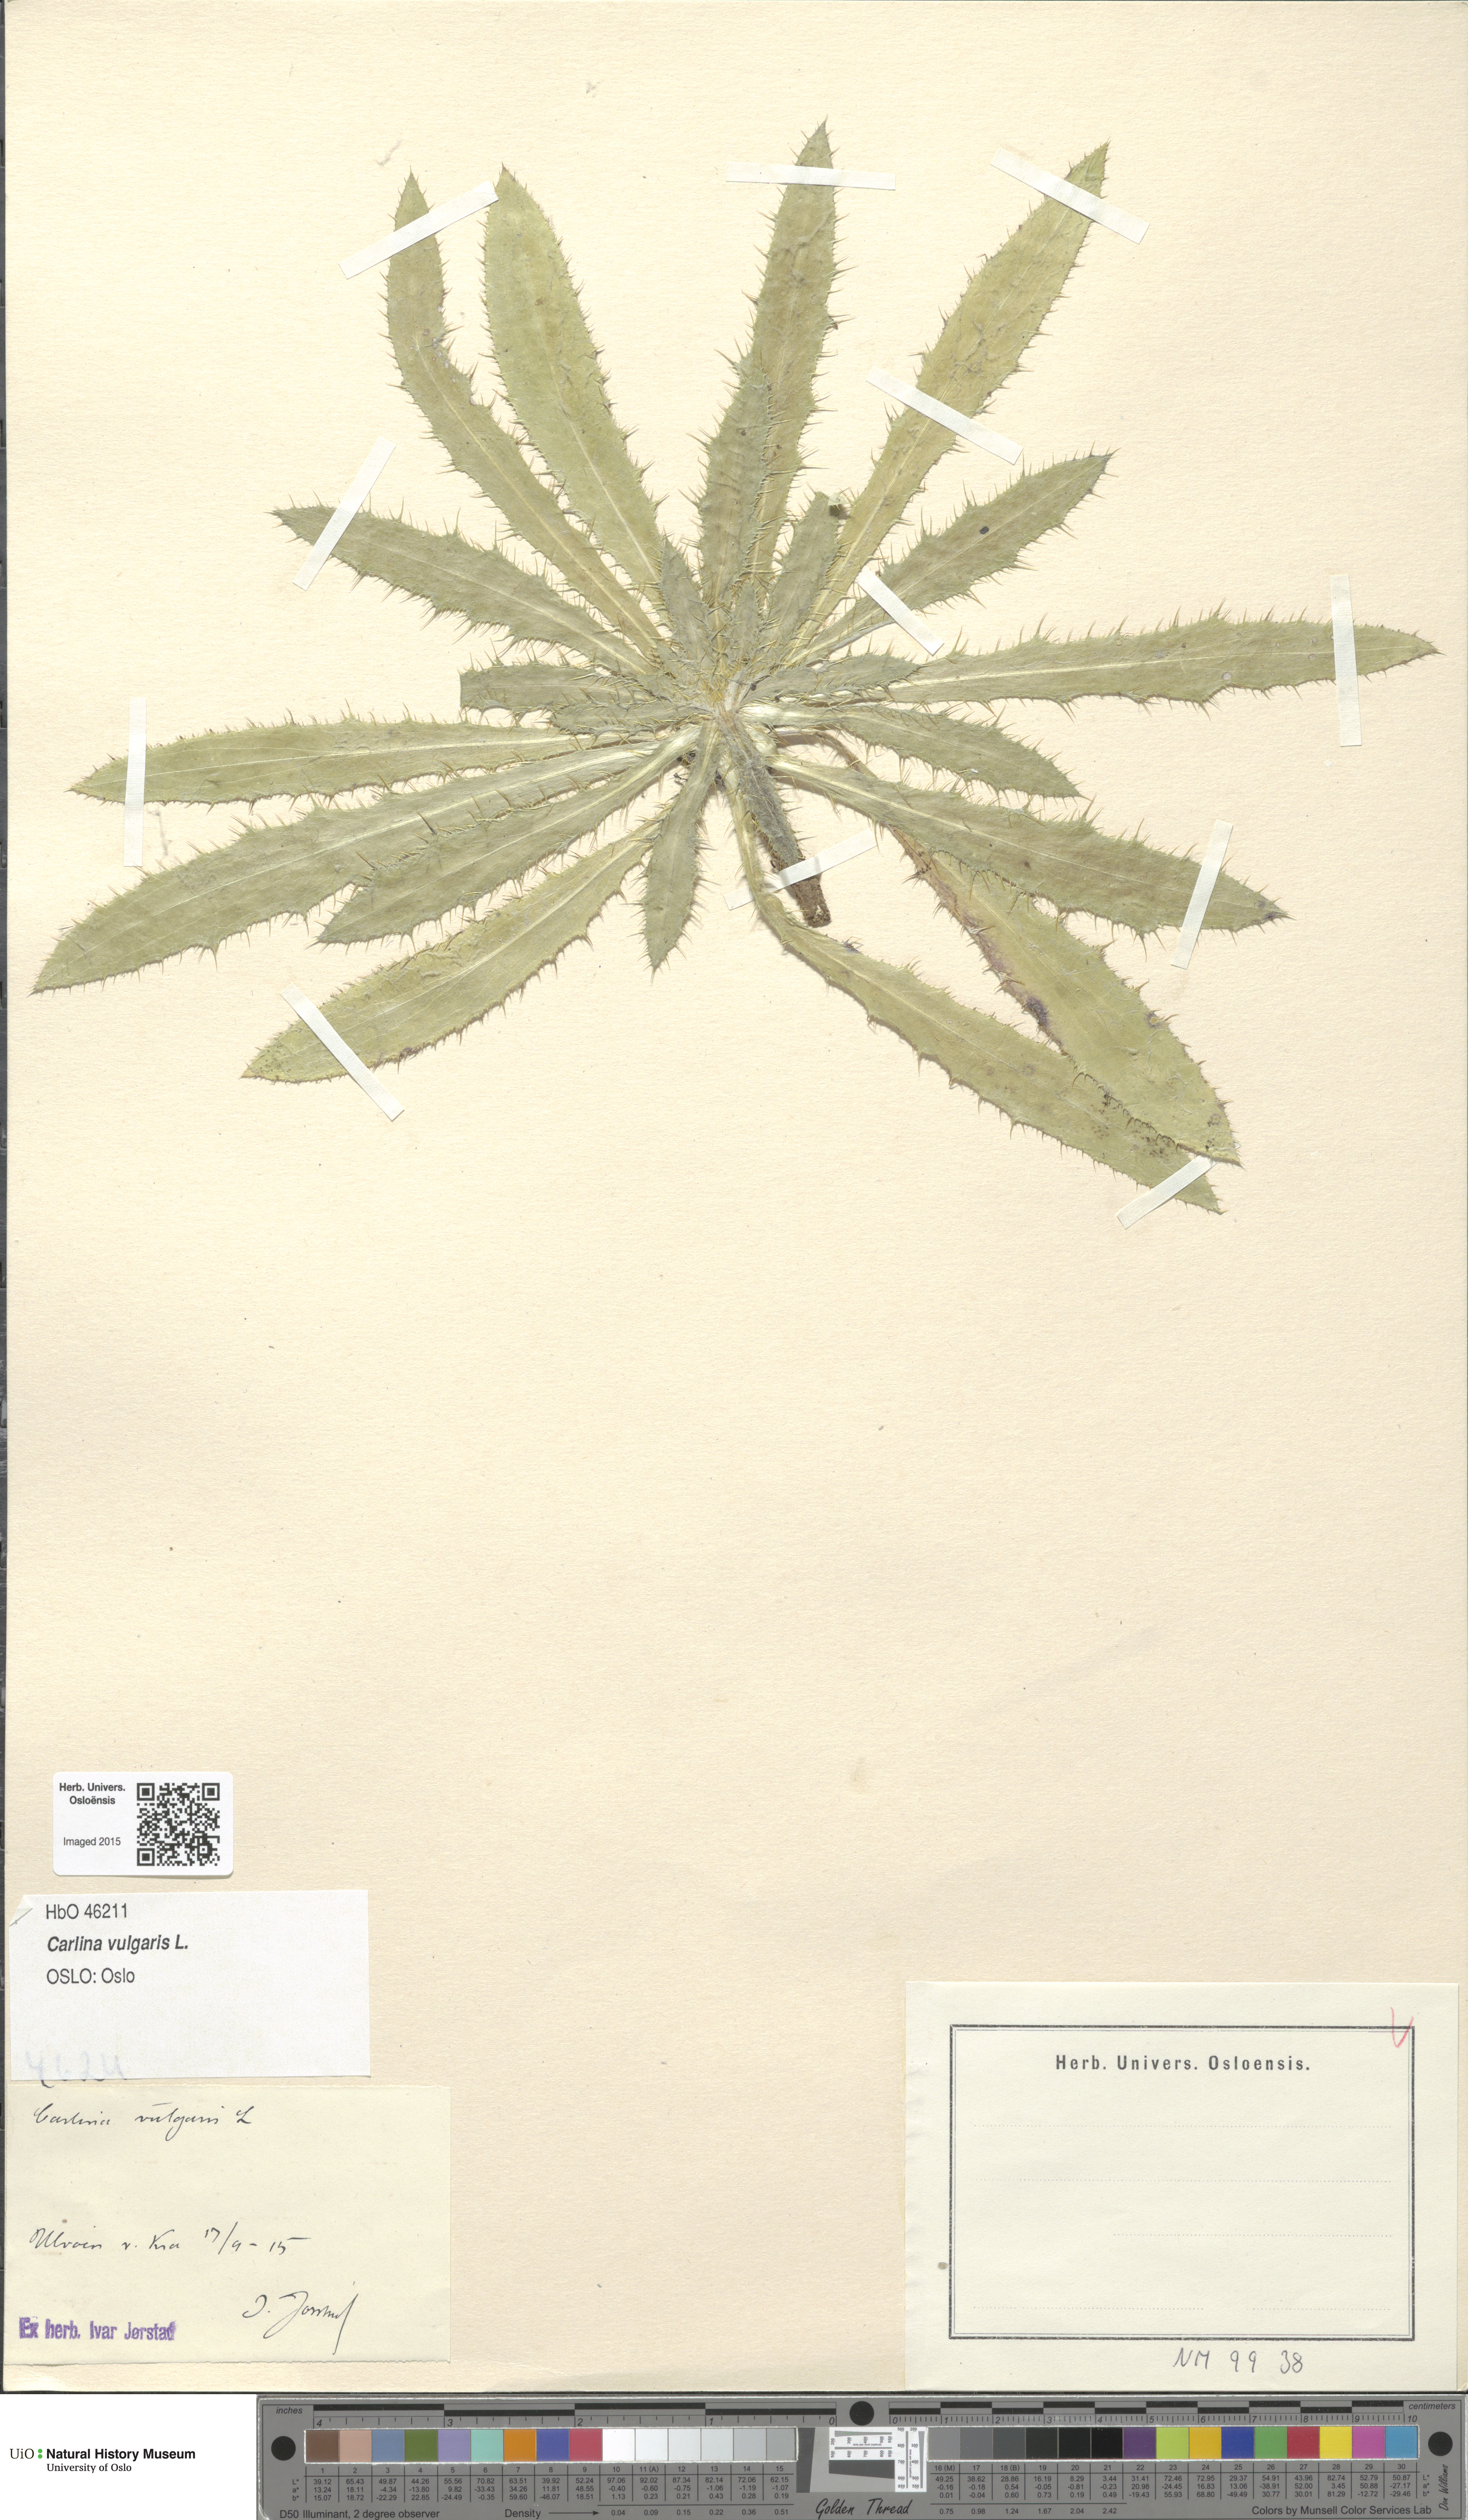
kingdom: Plantae
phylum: Tracheophyta
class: Magnoliopsida
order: Asterales
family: Asteraceae
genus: Carlina
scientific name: Carlina vulgaris
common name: Carline thistle
